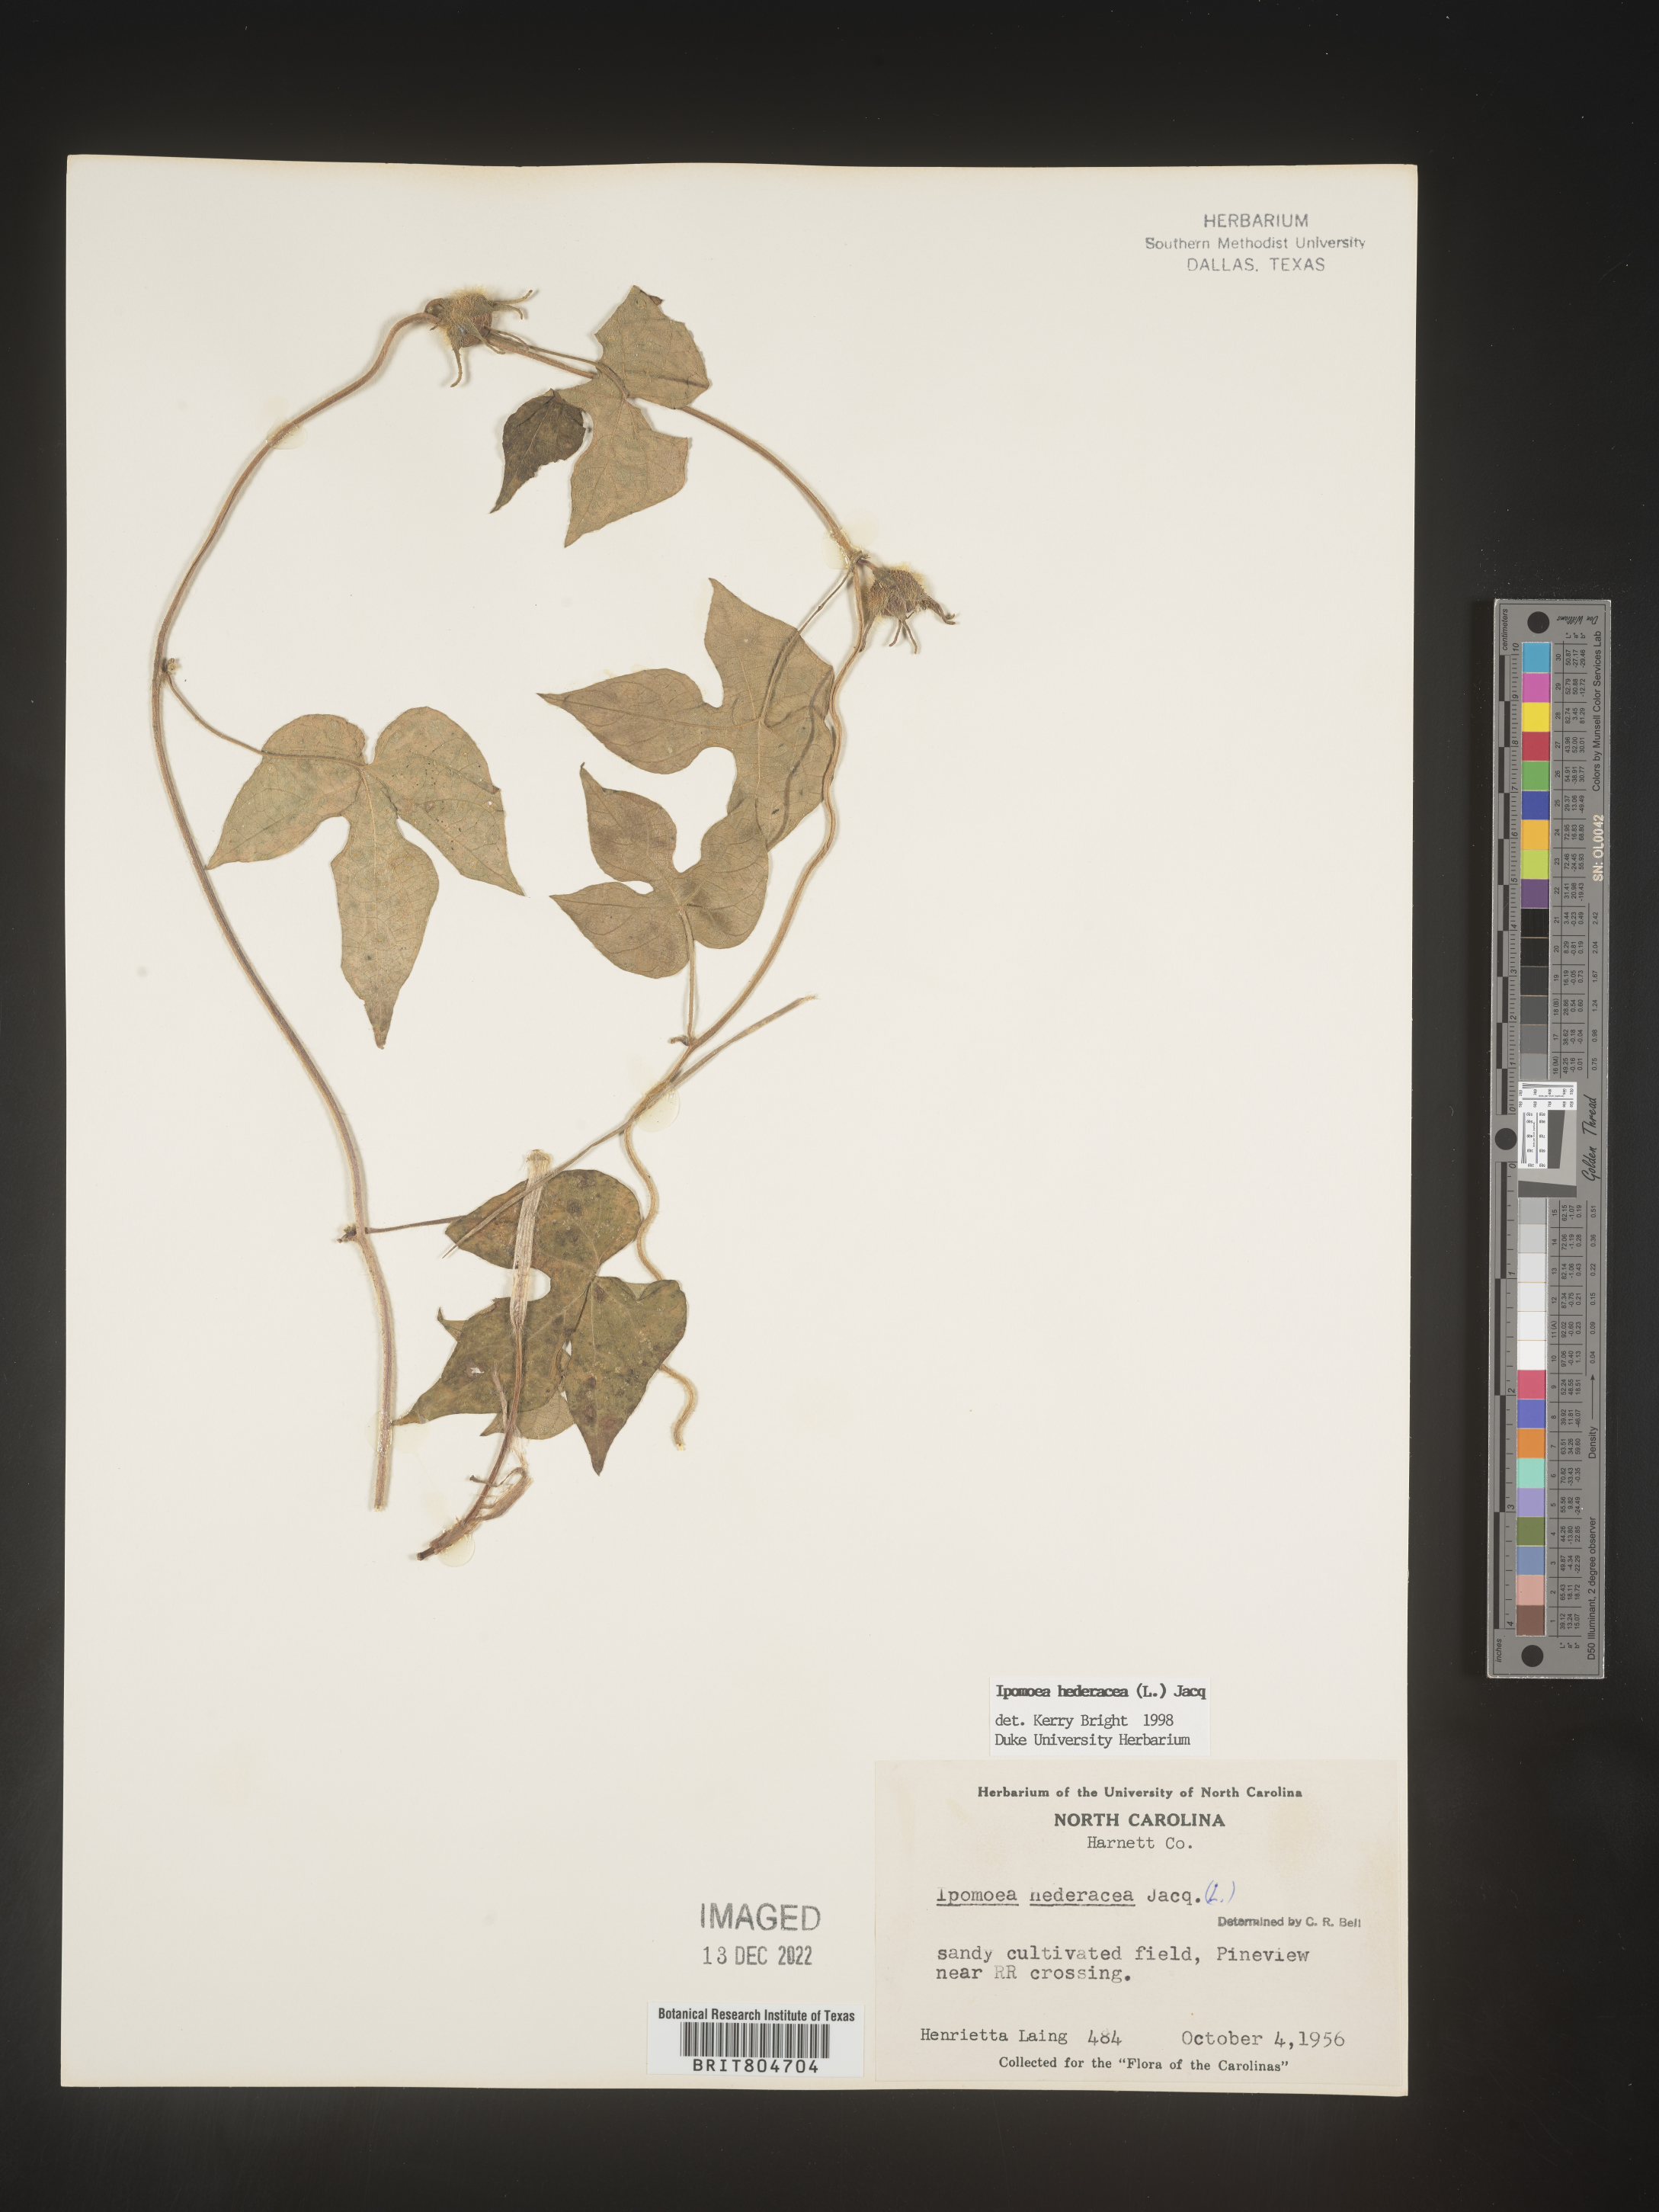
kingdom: Plantae
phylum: Tracheophyta
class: Magnoliopsida
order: Solanales
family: Convolvulaceae
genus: Ipomoea
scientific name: Ipomoea hederacea
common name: Ivy-leaved morning-glory
